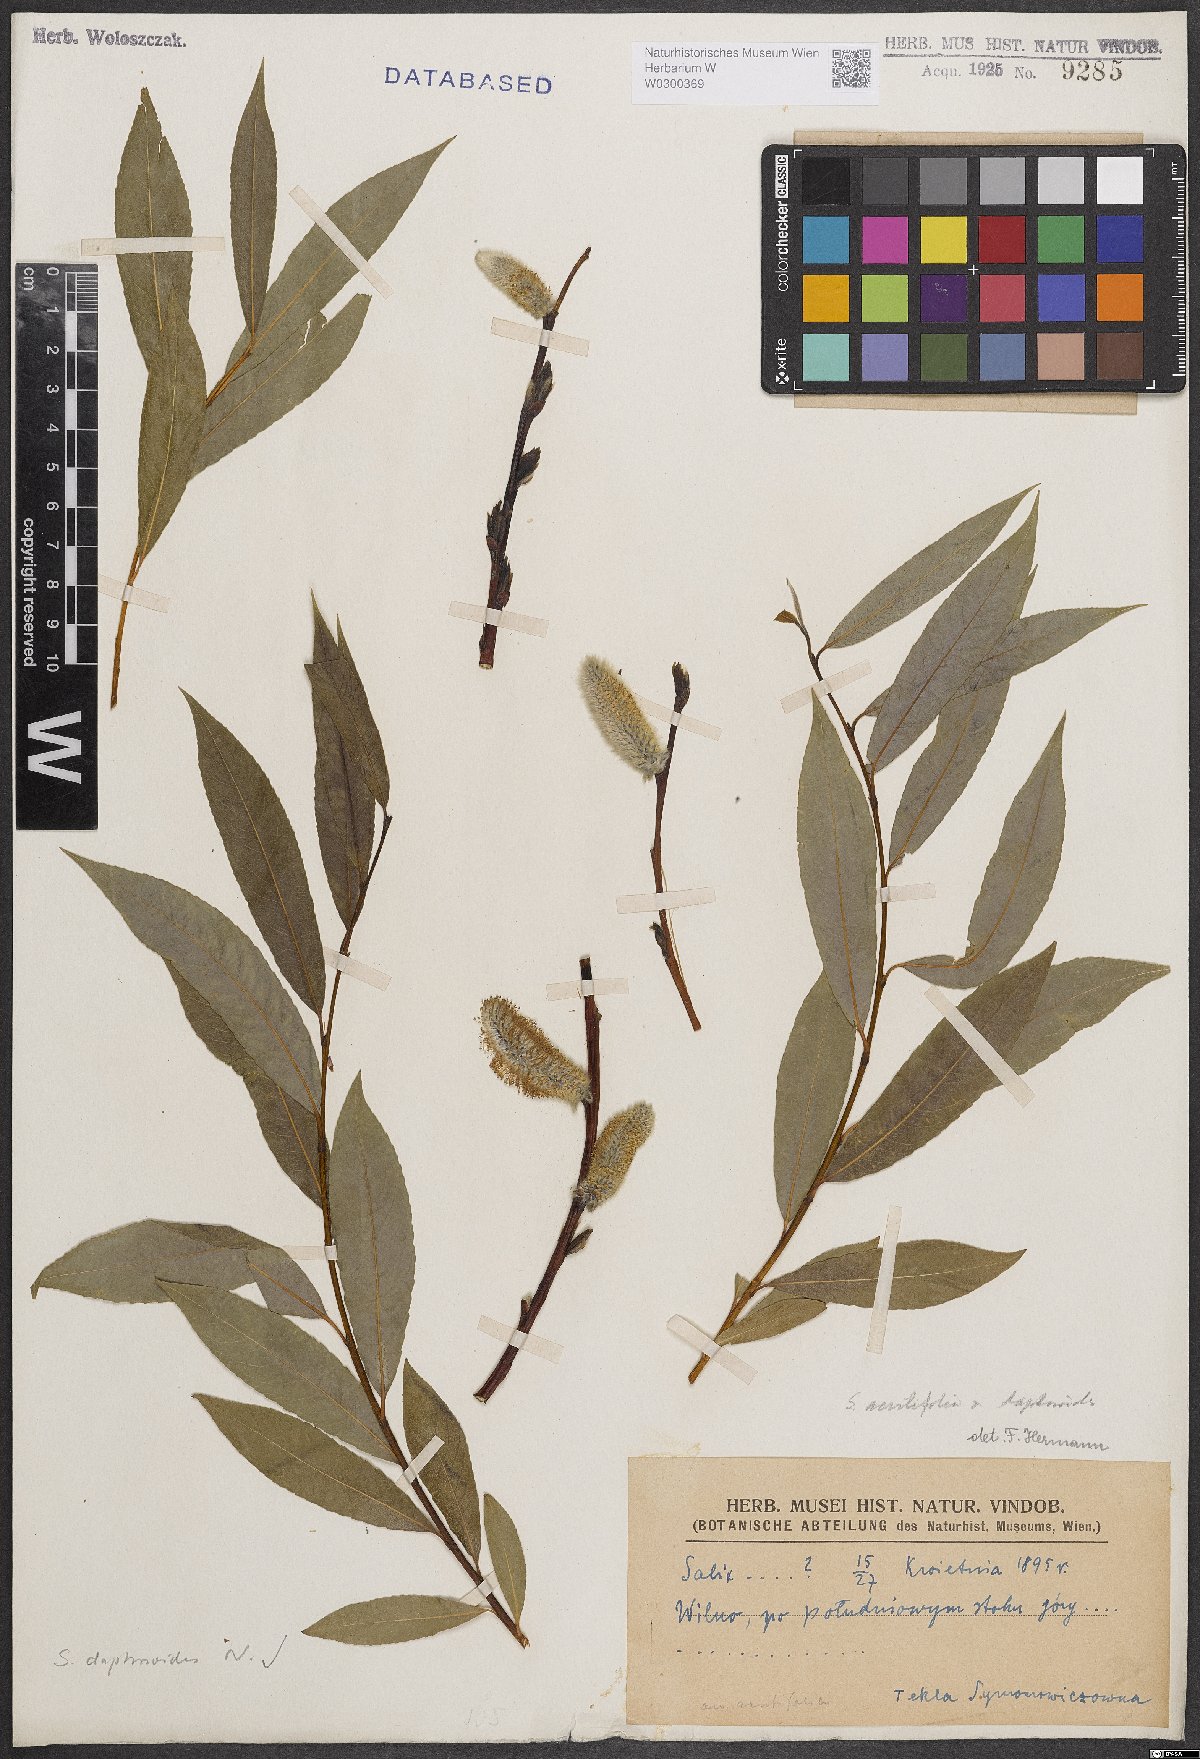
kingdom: Plantae
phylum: Tracheophyta
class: Magnoliopsida
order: Malpighiales
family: Salicaceae
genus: Salix
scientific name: Salix daphnoides
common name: European violet-willow
